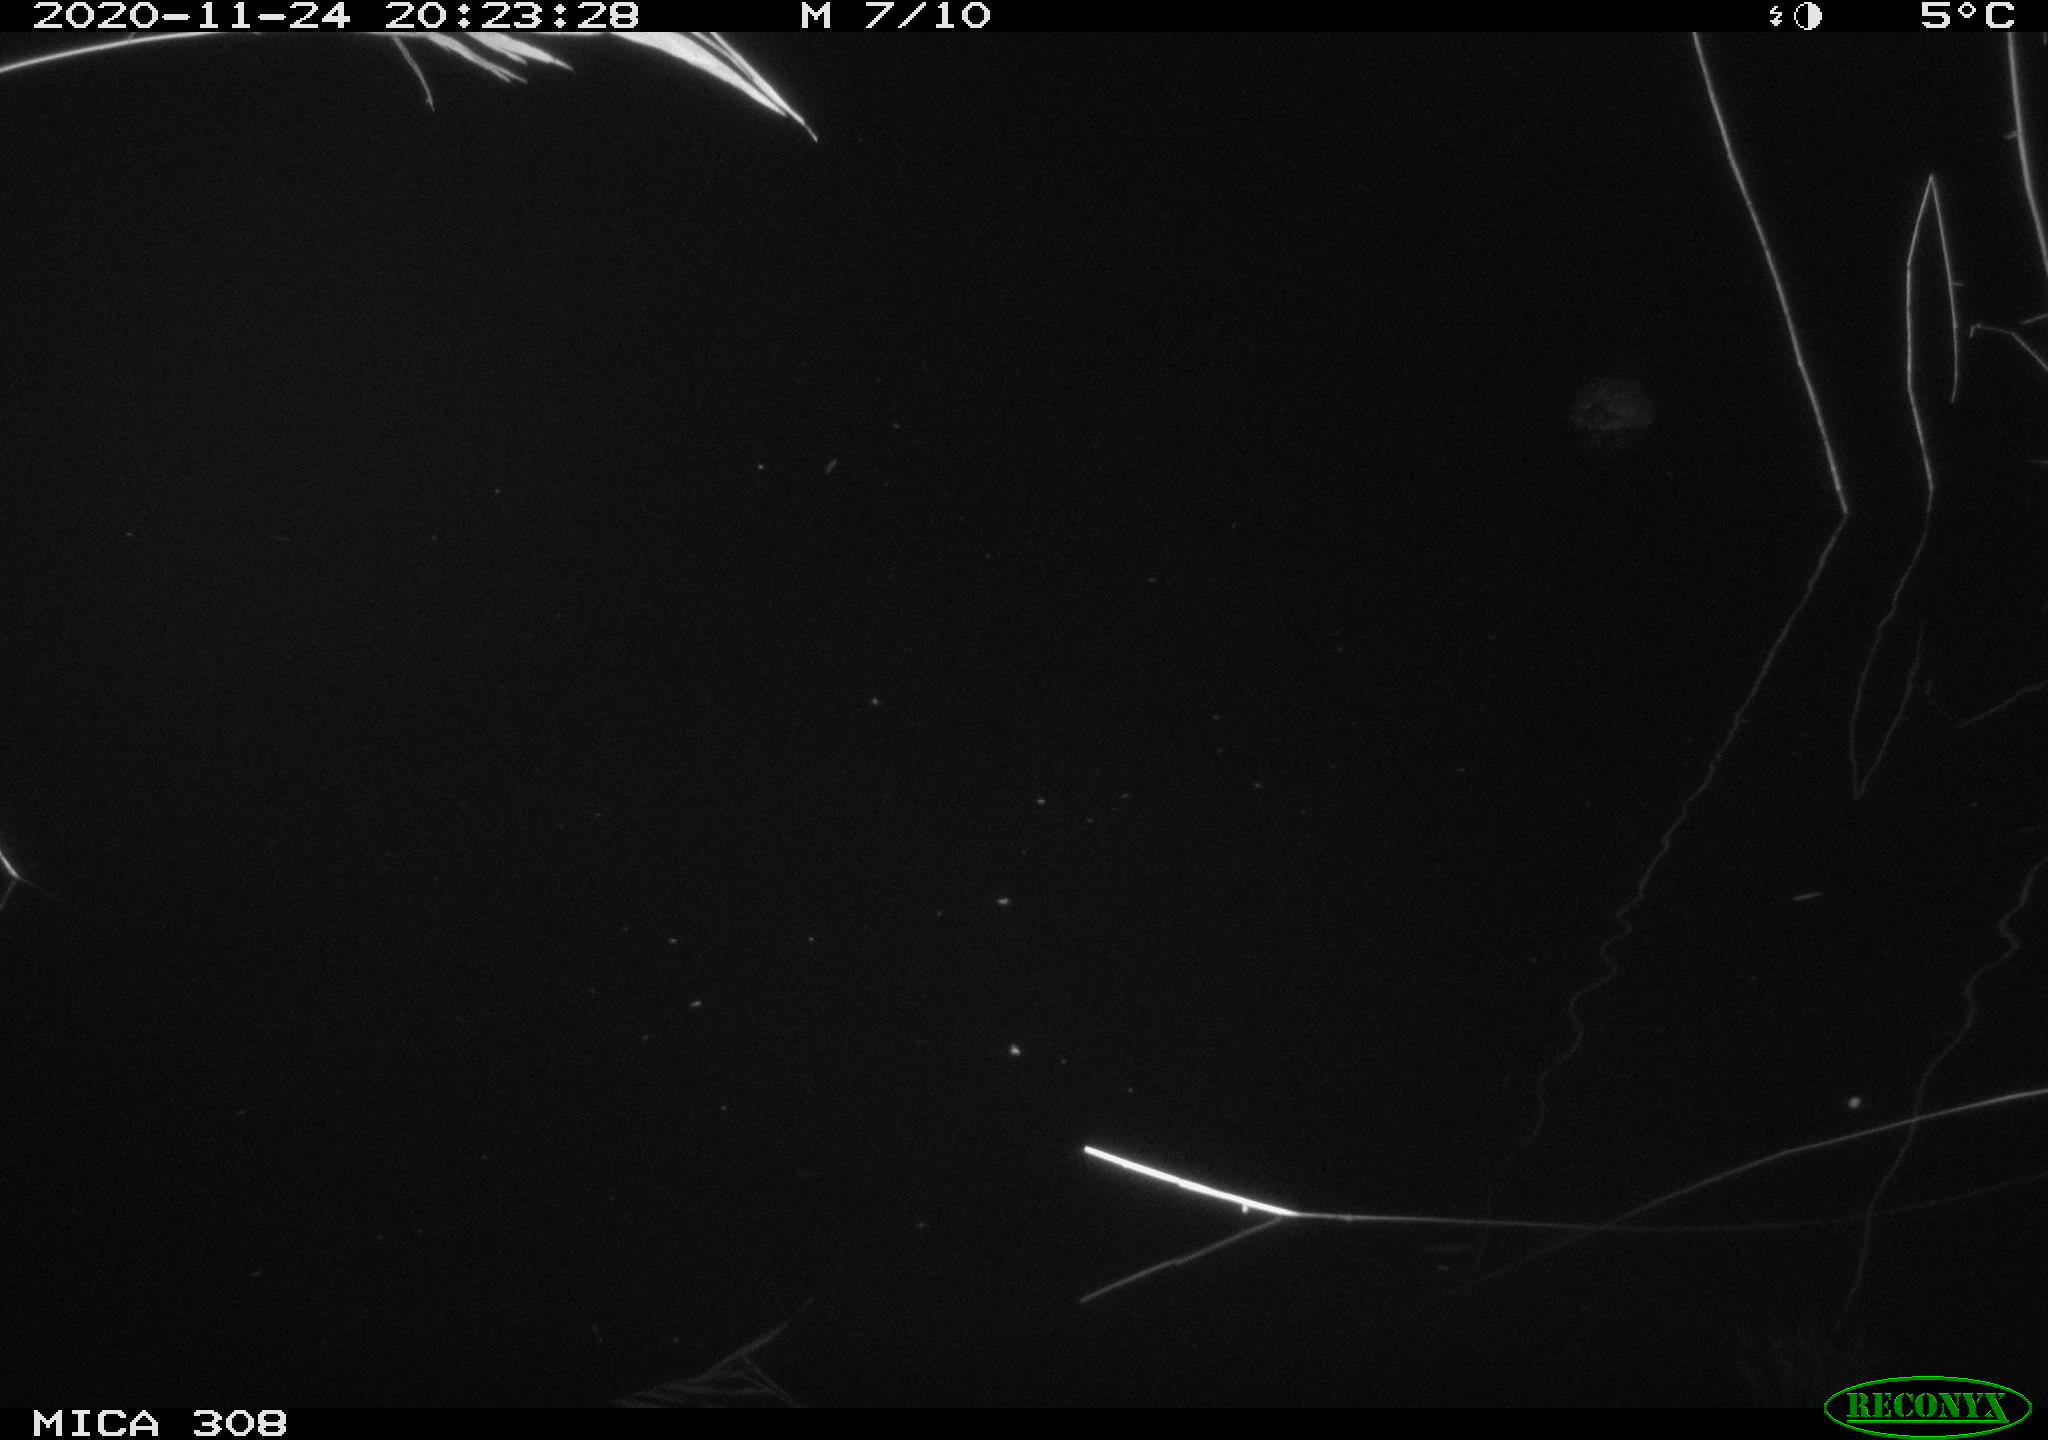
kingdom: Animalia
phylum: Chordata
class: Aves
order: Gruiformes
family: Rallidae
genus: Fulica
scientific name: Fulica atra
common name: Eurasian coot
